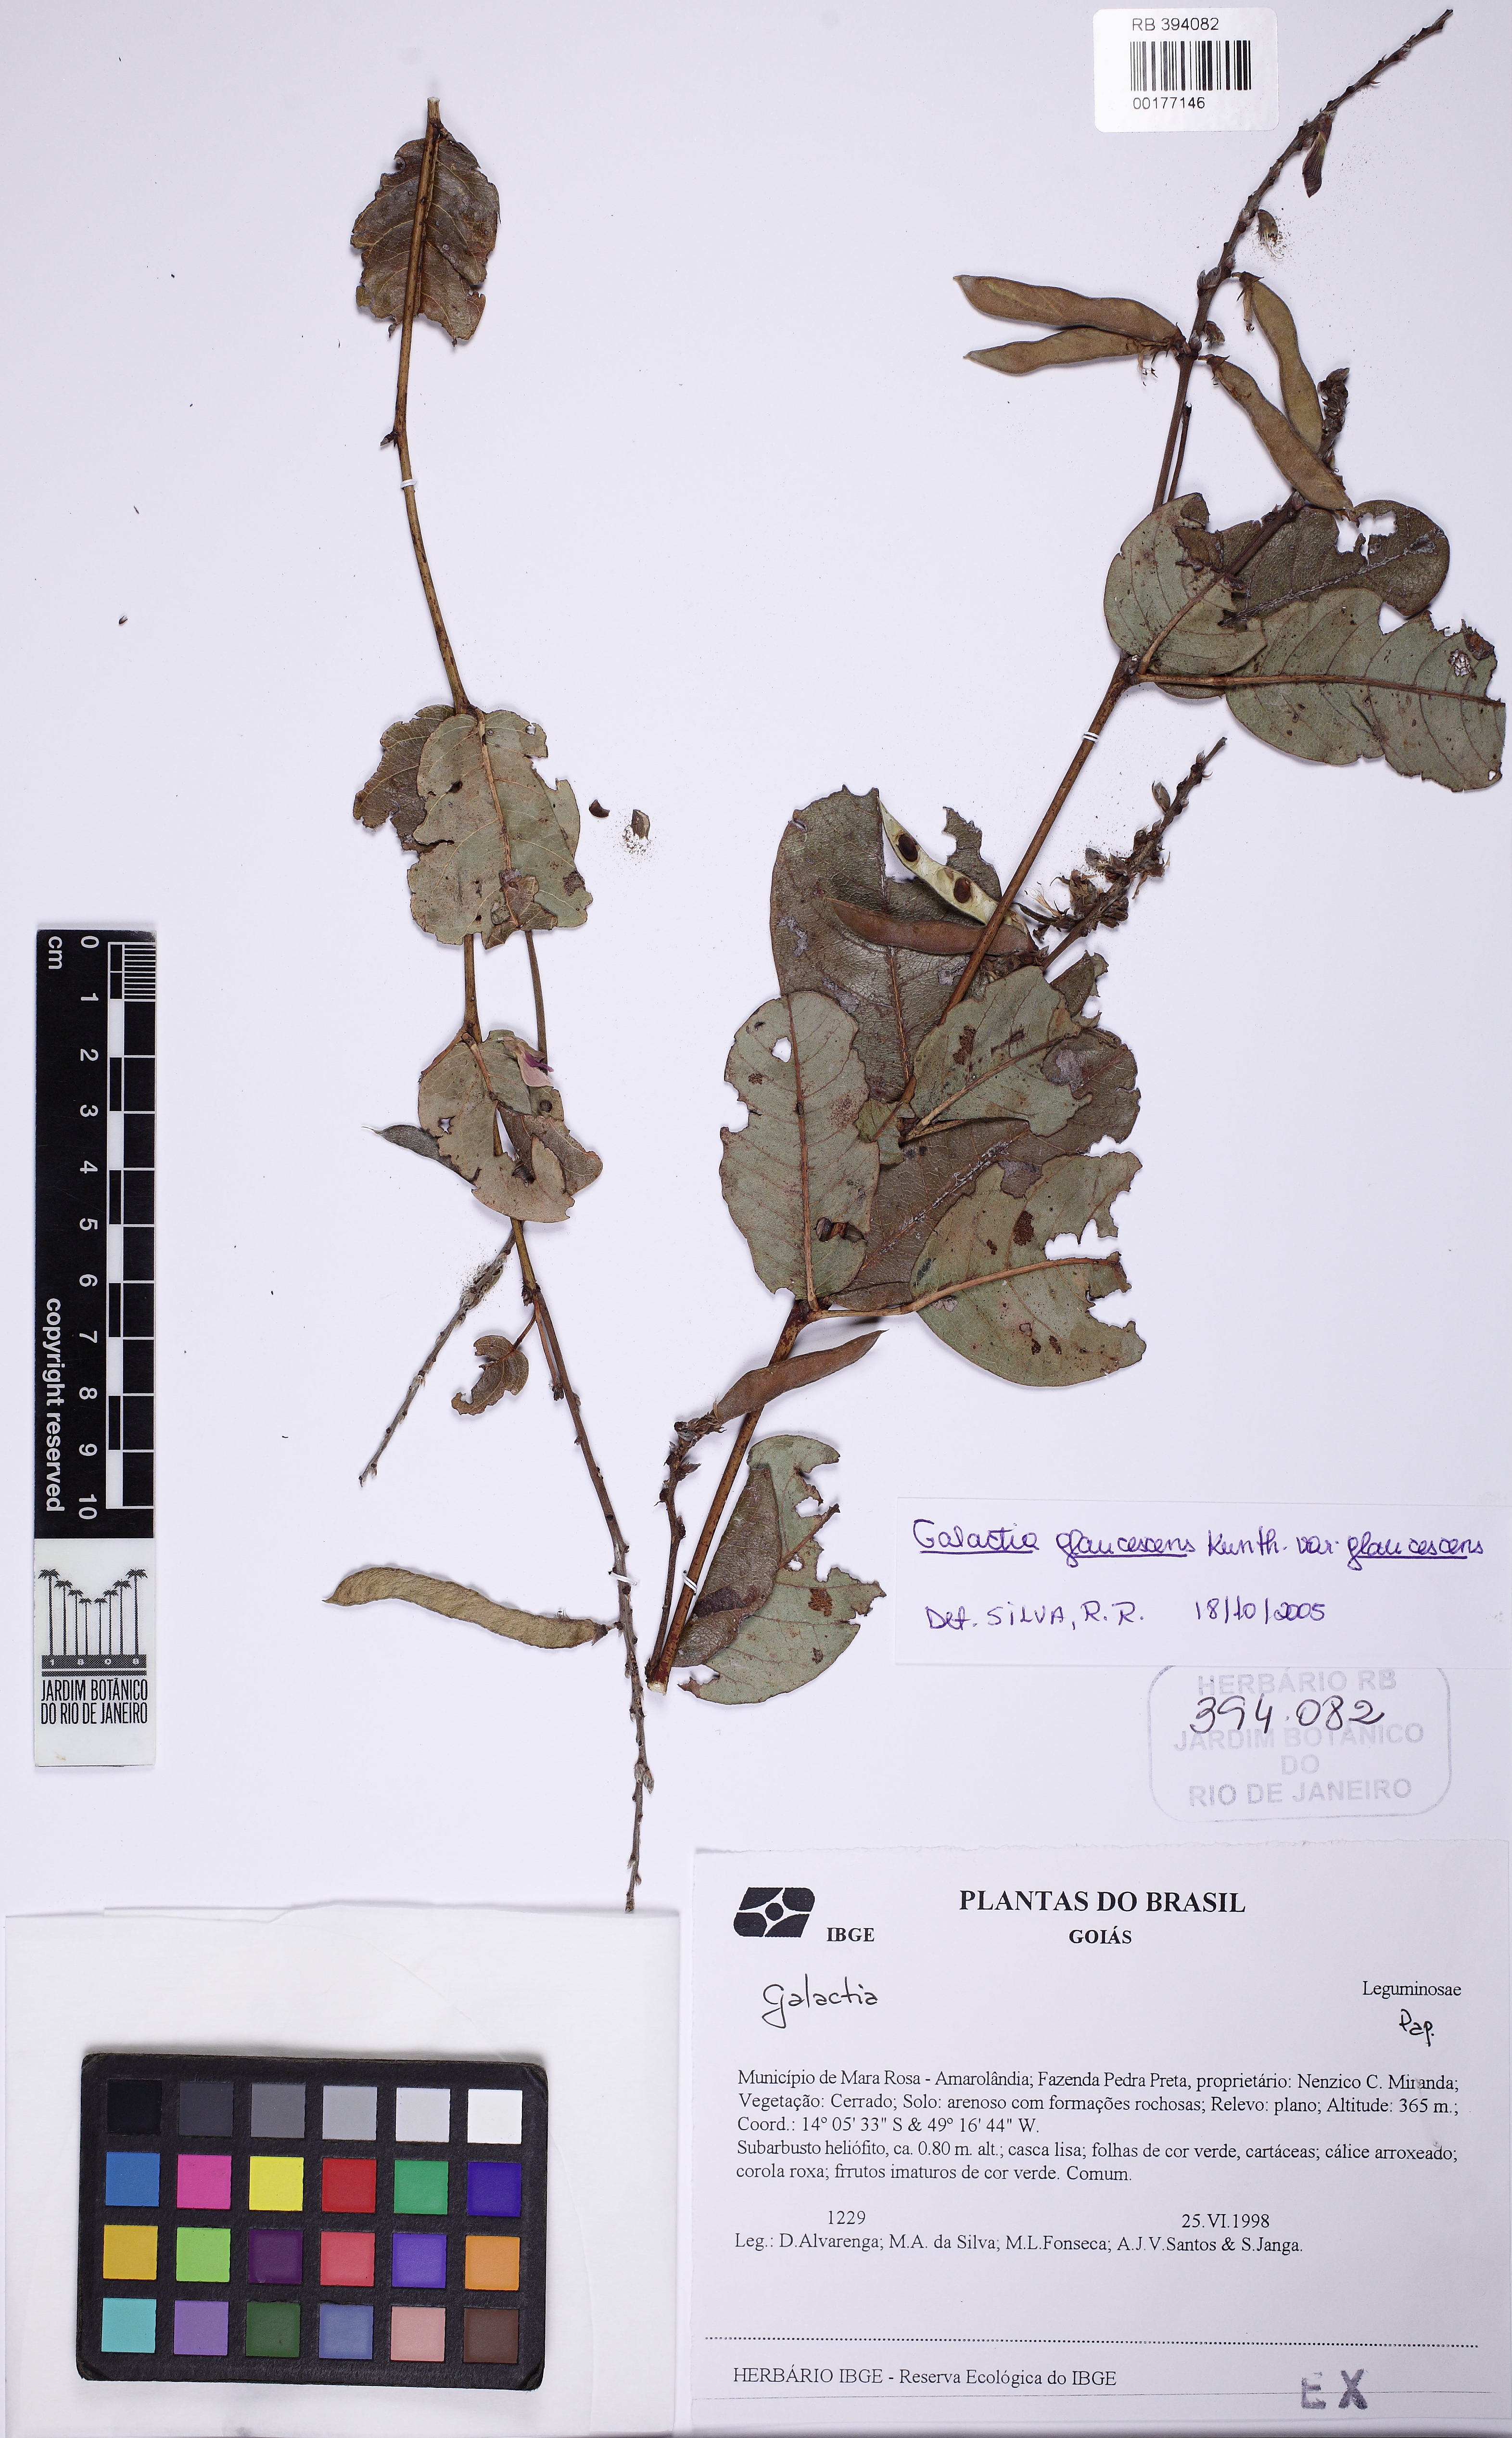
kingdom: Plantae
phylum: Tracheophyta
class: Magnoliopsida
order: Fabales
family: Fabaceae
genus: Galactia
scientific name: Galactia glaucescens
